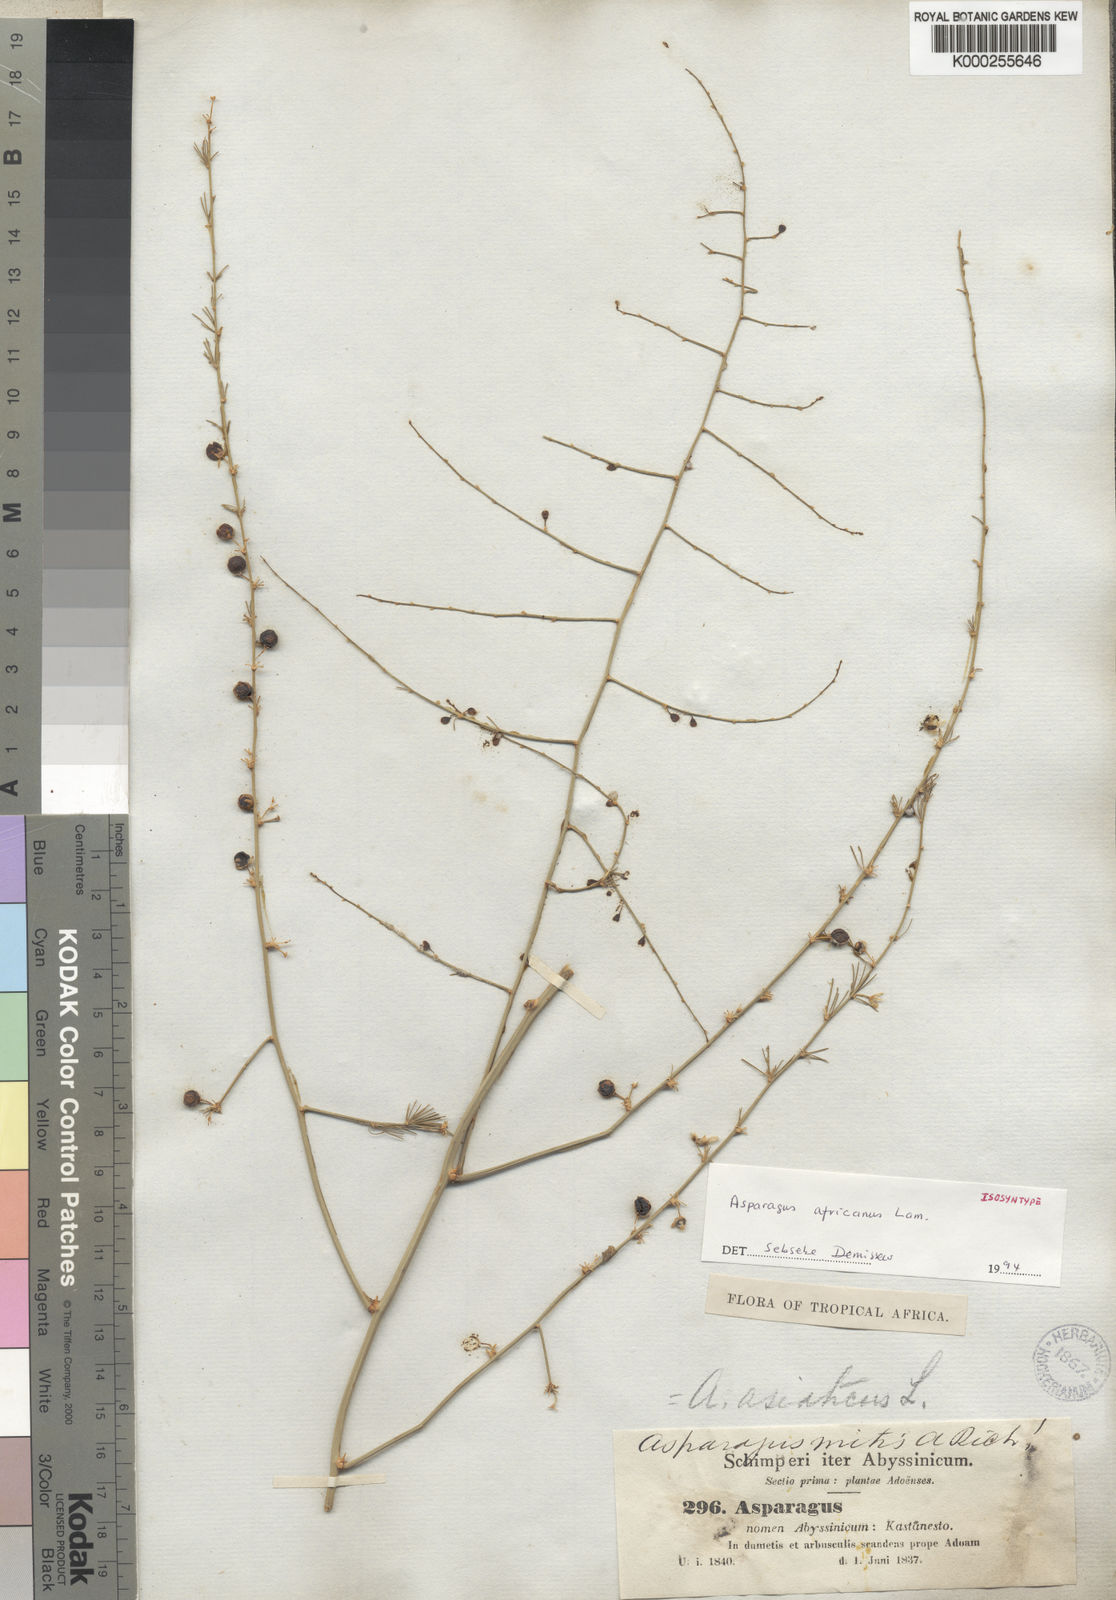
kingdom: Plantae
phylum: Tracheophyta
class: Liliopsida
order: Asparagales
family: Asparagaceae
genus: Asparagus
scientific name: Asparagus africanus
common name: Asparagus-fern
